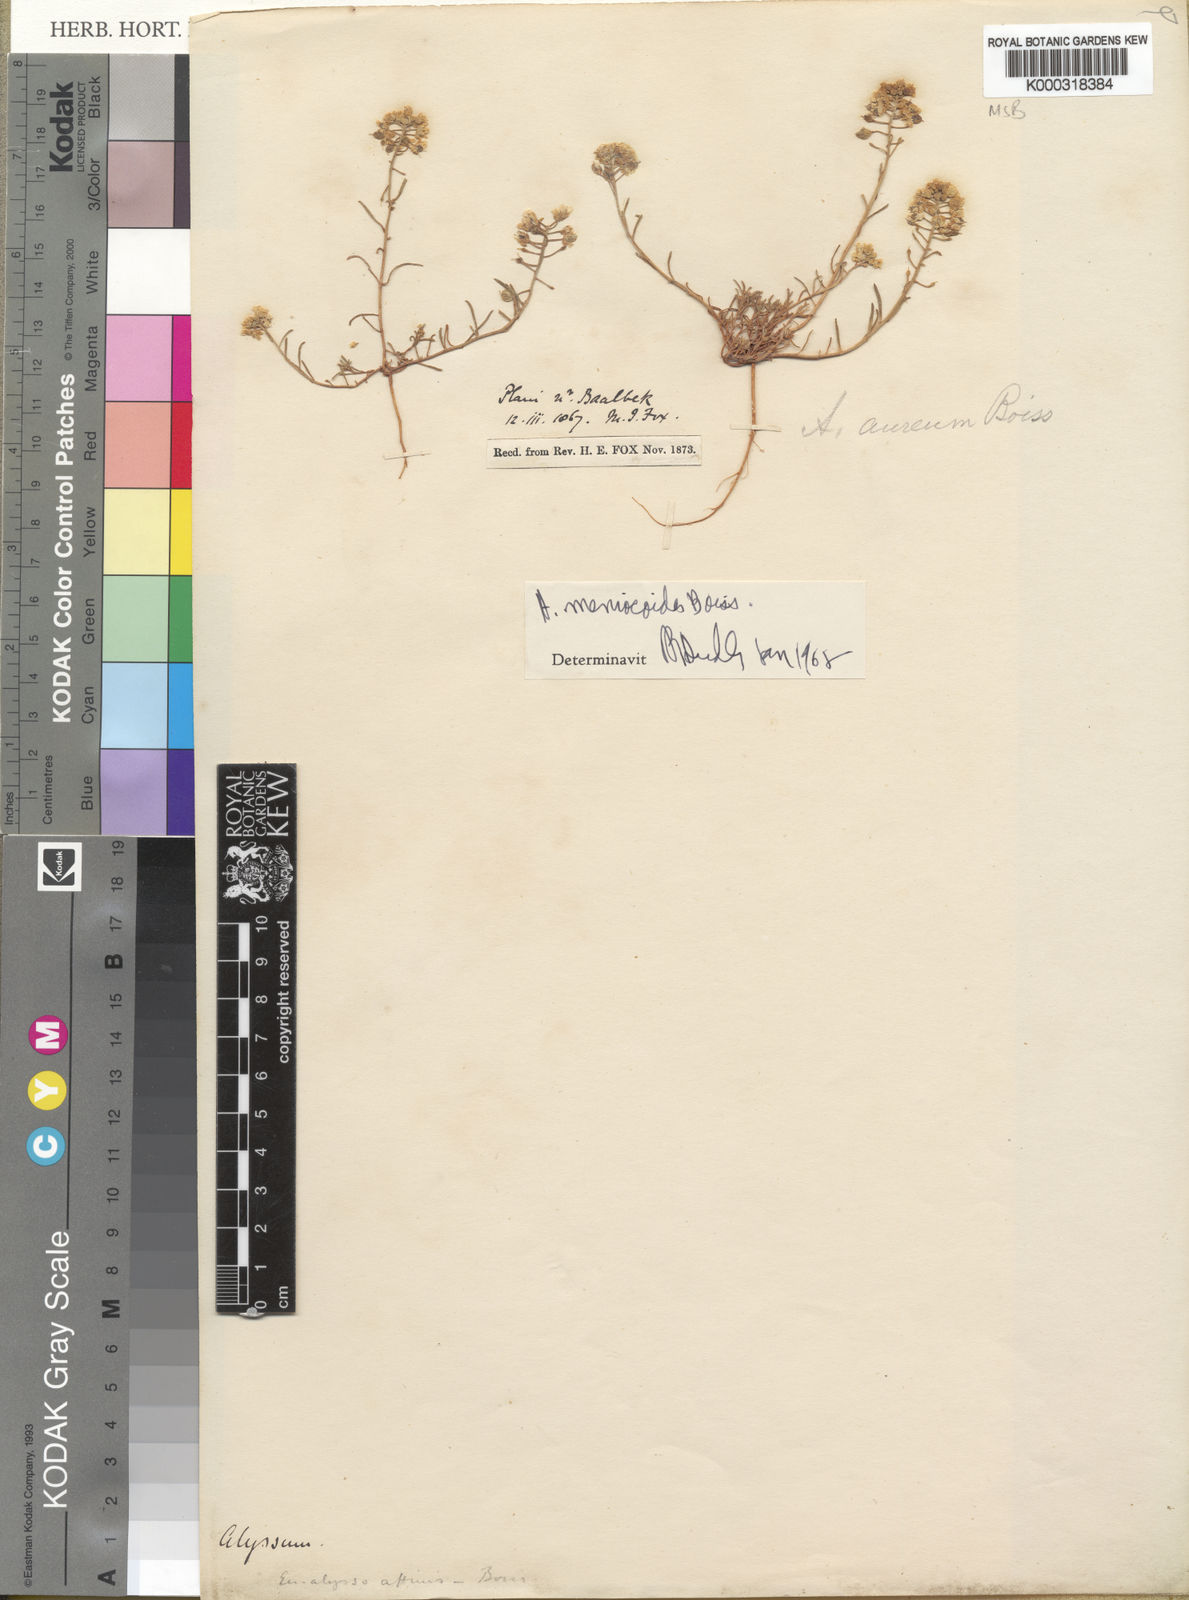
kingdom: Plantae
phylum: Tracheophyta
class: Magnoliopsida
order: Brassicales
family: Brassicaceae
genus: Meniocus
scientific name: Meniocus
